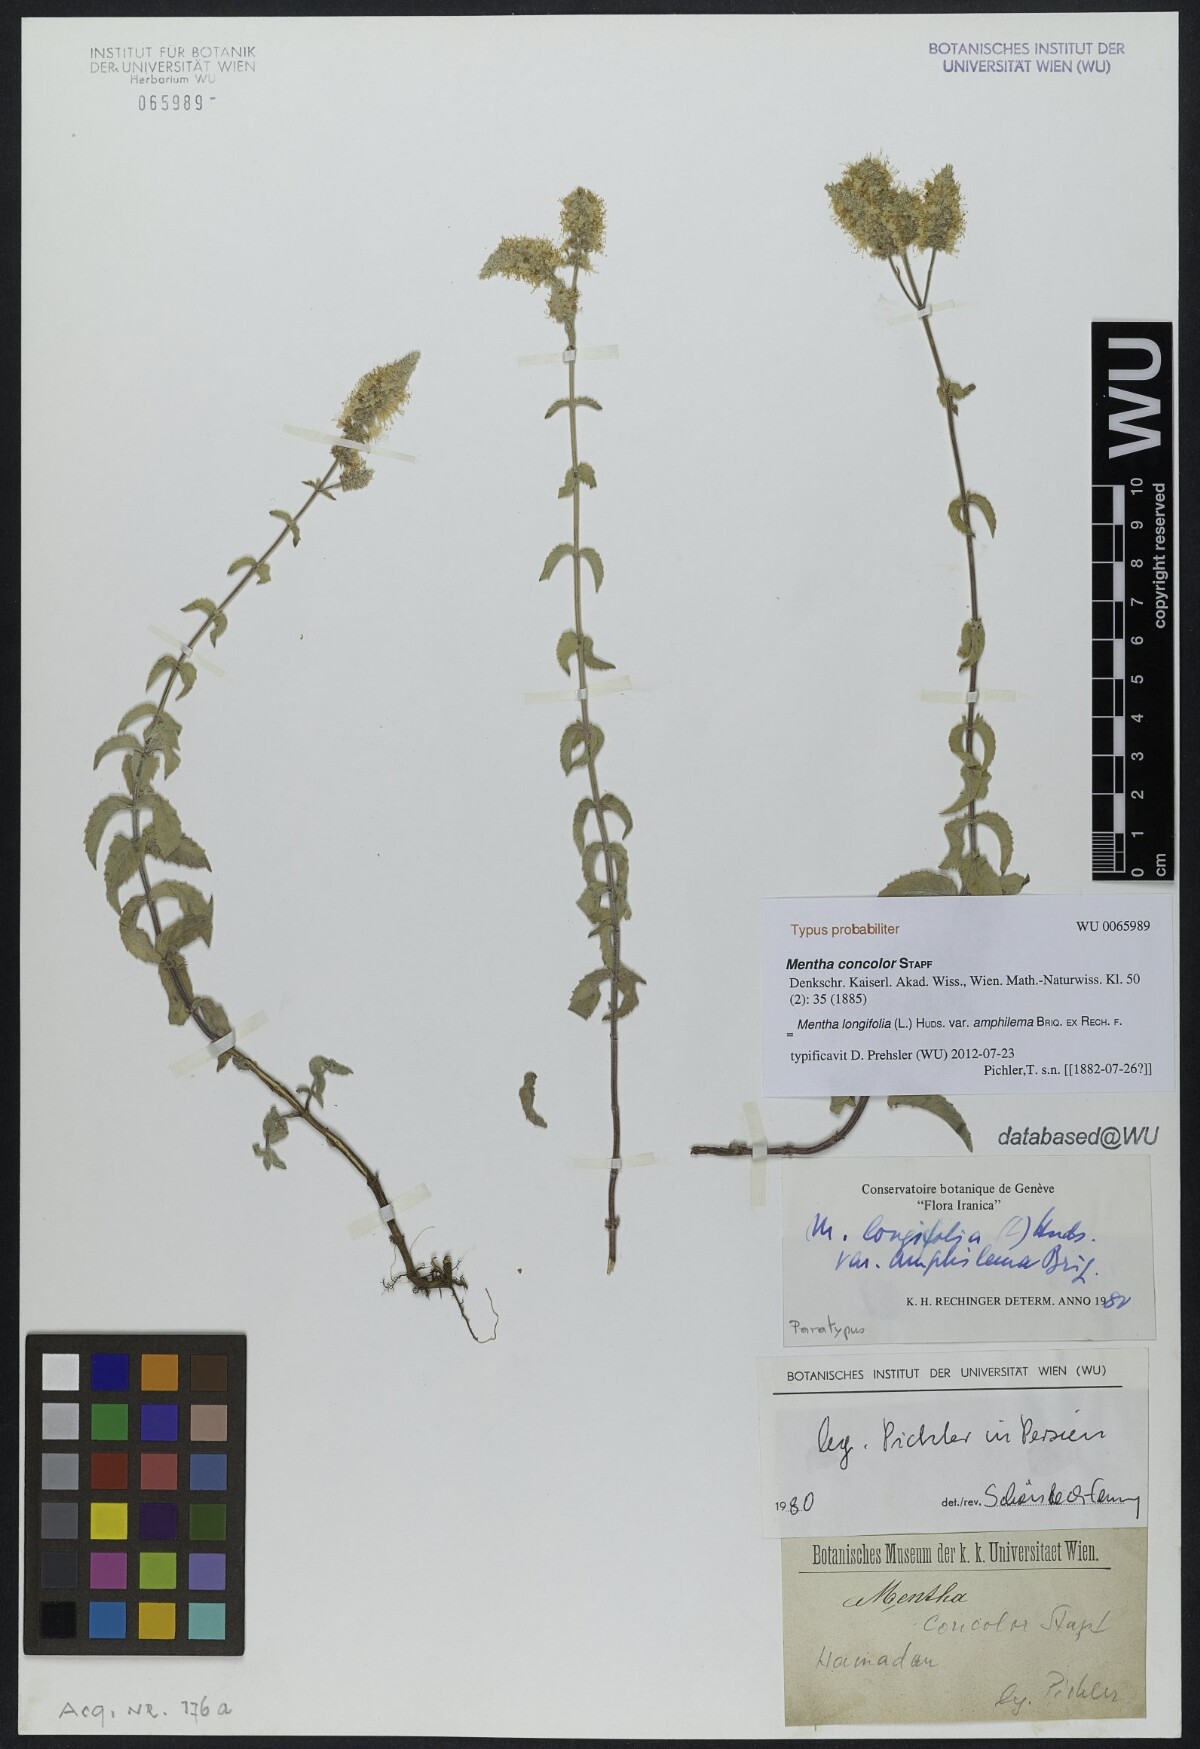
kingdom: Plantae
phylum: Tracheophyta
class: Magnoliopsida
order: Lamiales
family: Lamiaceae
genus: Mentha
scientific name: Mentha longifolia
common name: Horse mint
